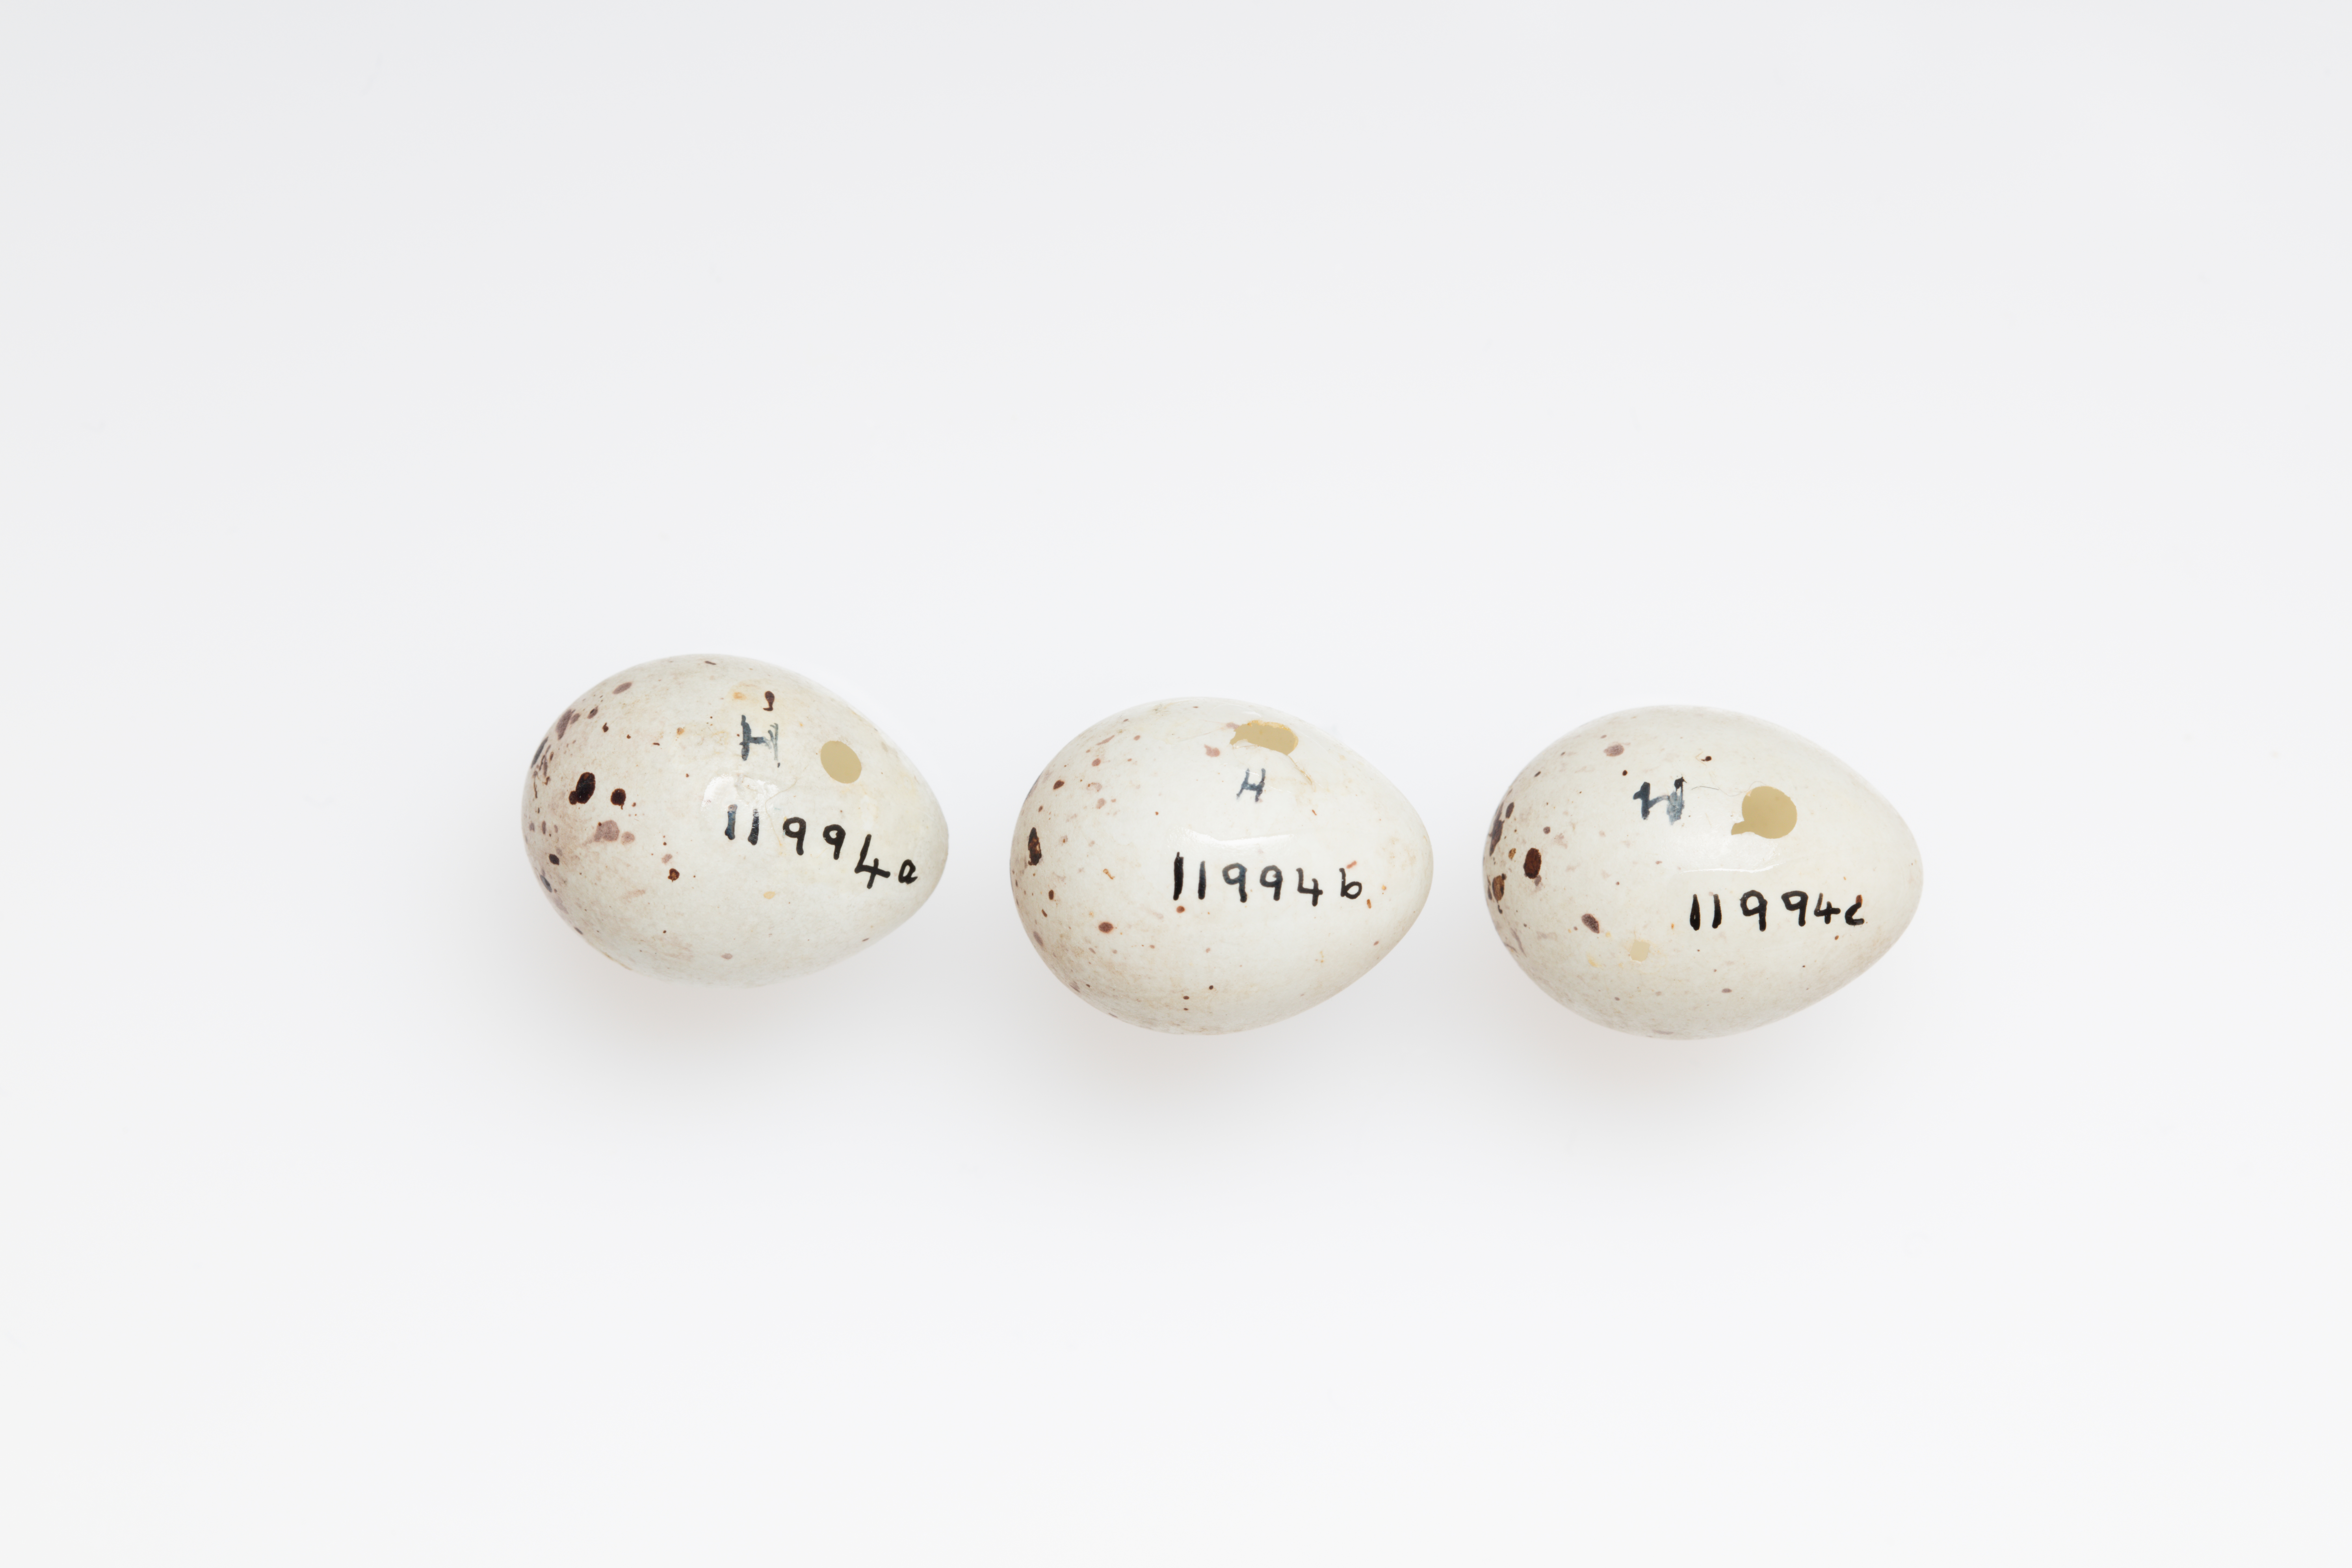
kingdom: Animalia
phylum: Chordata
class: Aves
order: Passeriformes
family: Fringillidae
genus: Carduelis
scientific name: Carduelis carduelis
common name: European goldfinch
